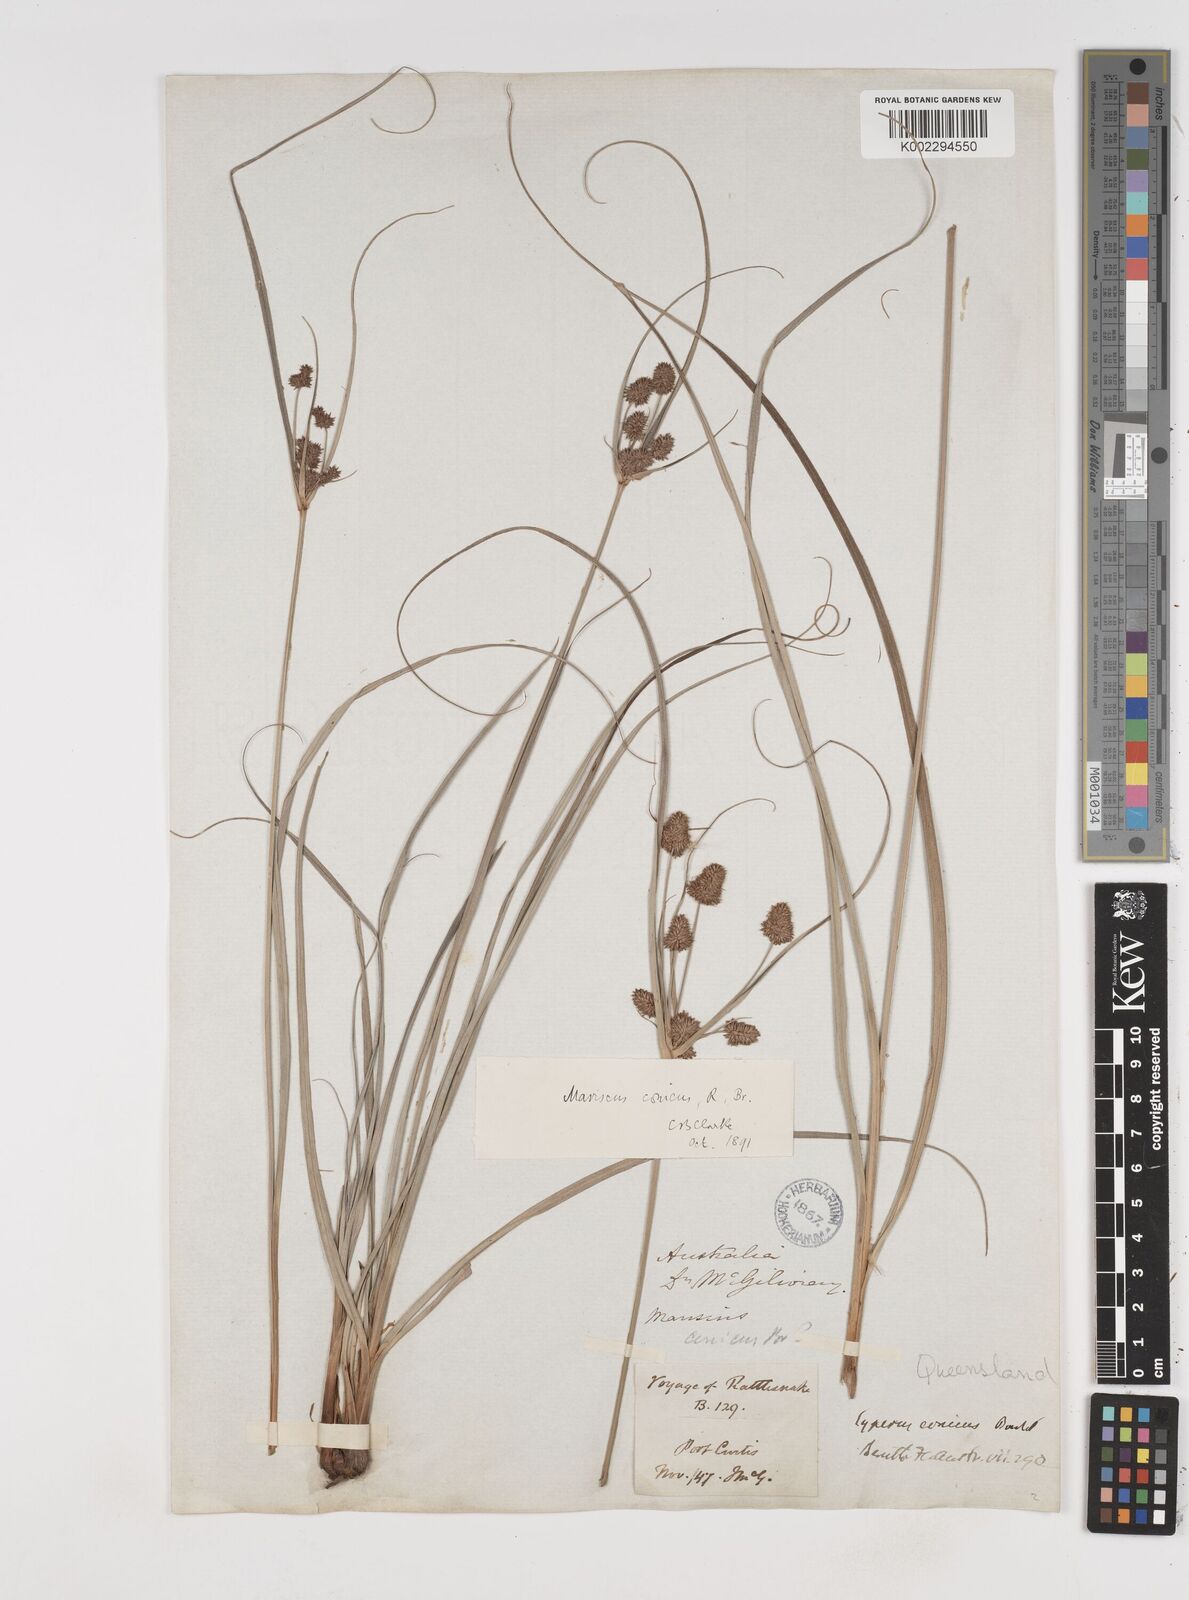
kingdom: Plantae
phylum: Tracheophyta
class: Liliopsida
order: Poales
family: Cyperaceae
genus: Cyperus
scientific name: Cyperus conicus
